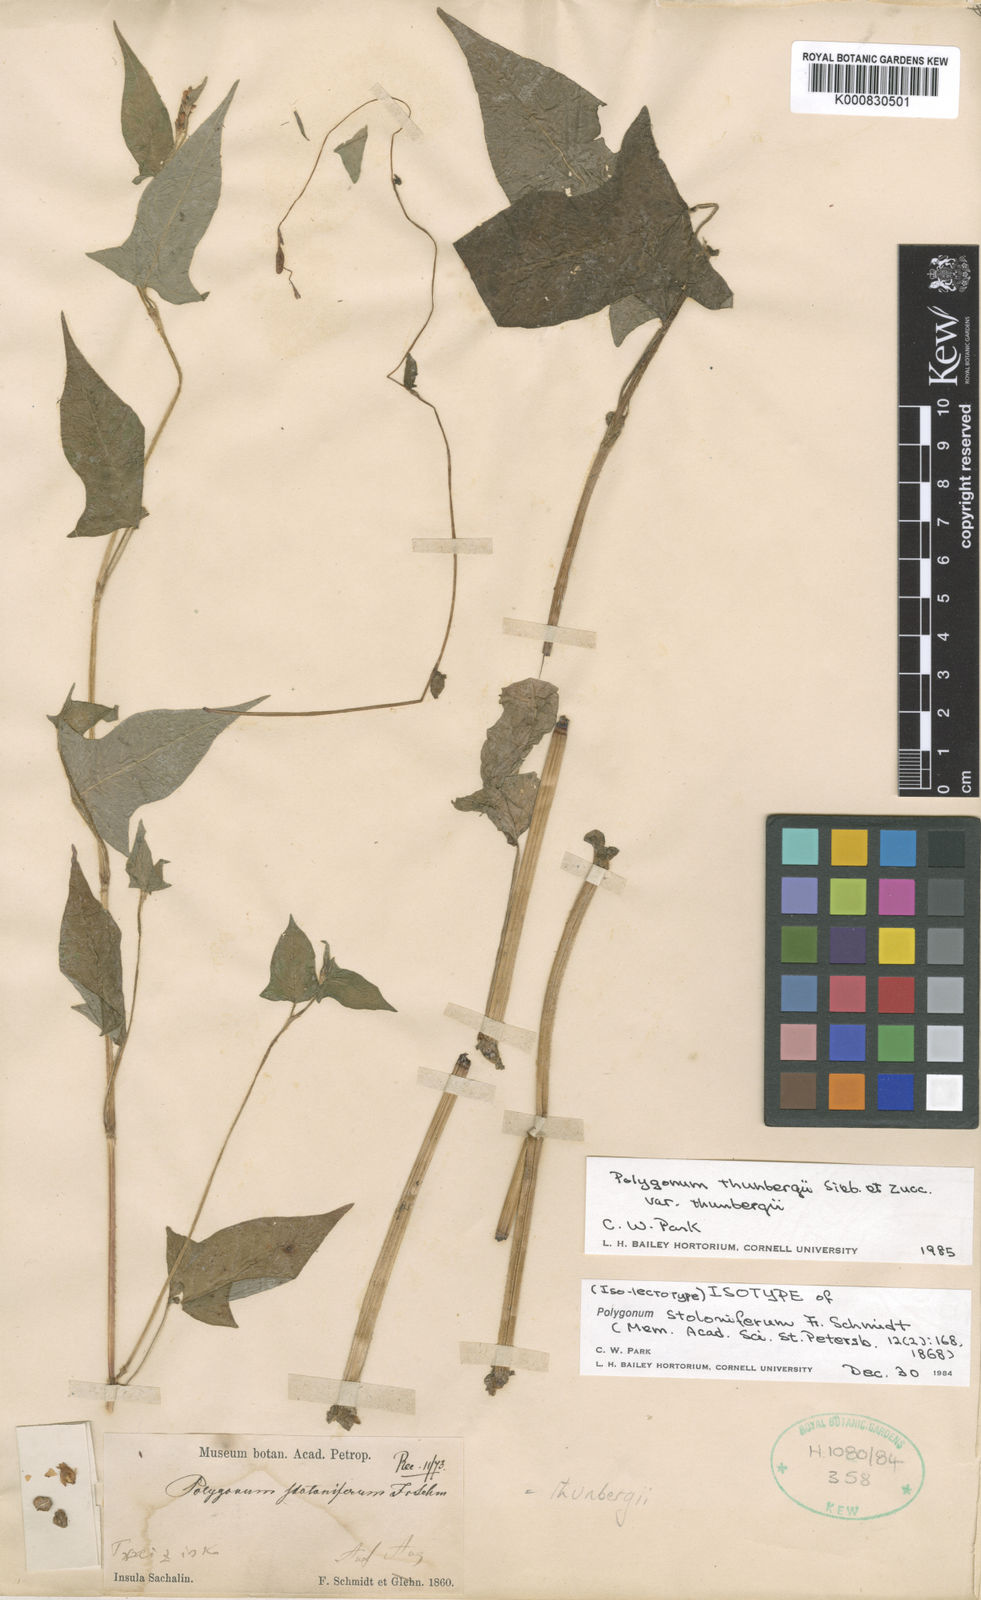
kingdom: Plantae
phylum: Tracheophyta
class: Magnoliopsida
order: Caryophyllales
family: Polygonaceae
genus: Persicaria
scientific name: Persicaria thunbergii
